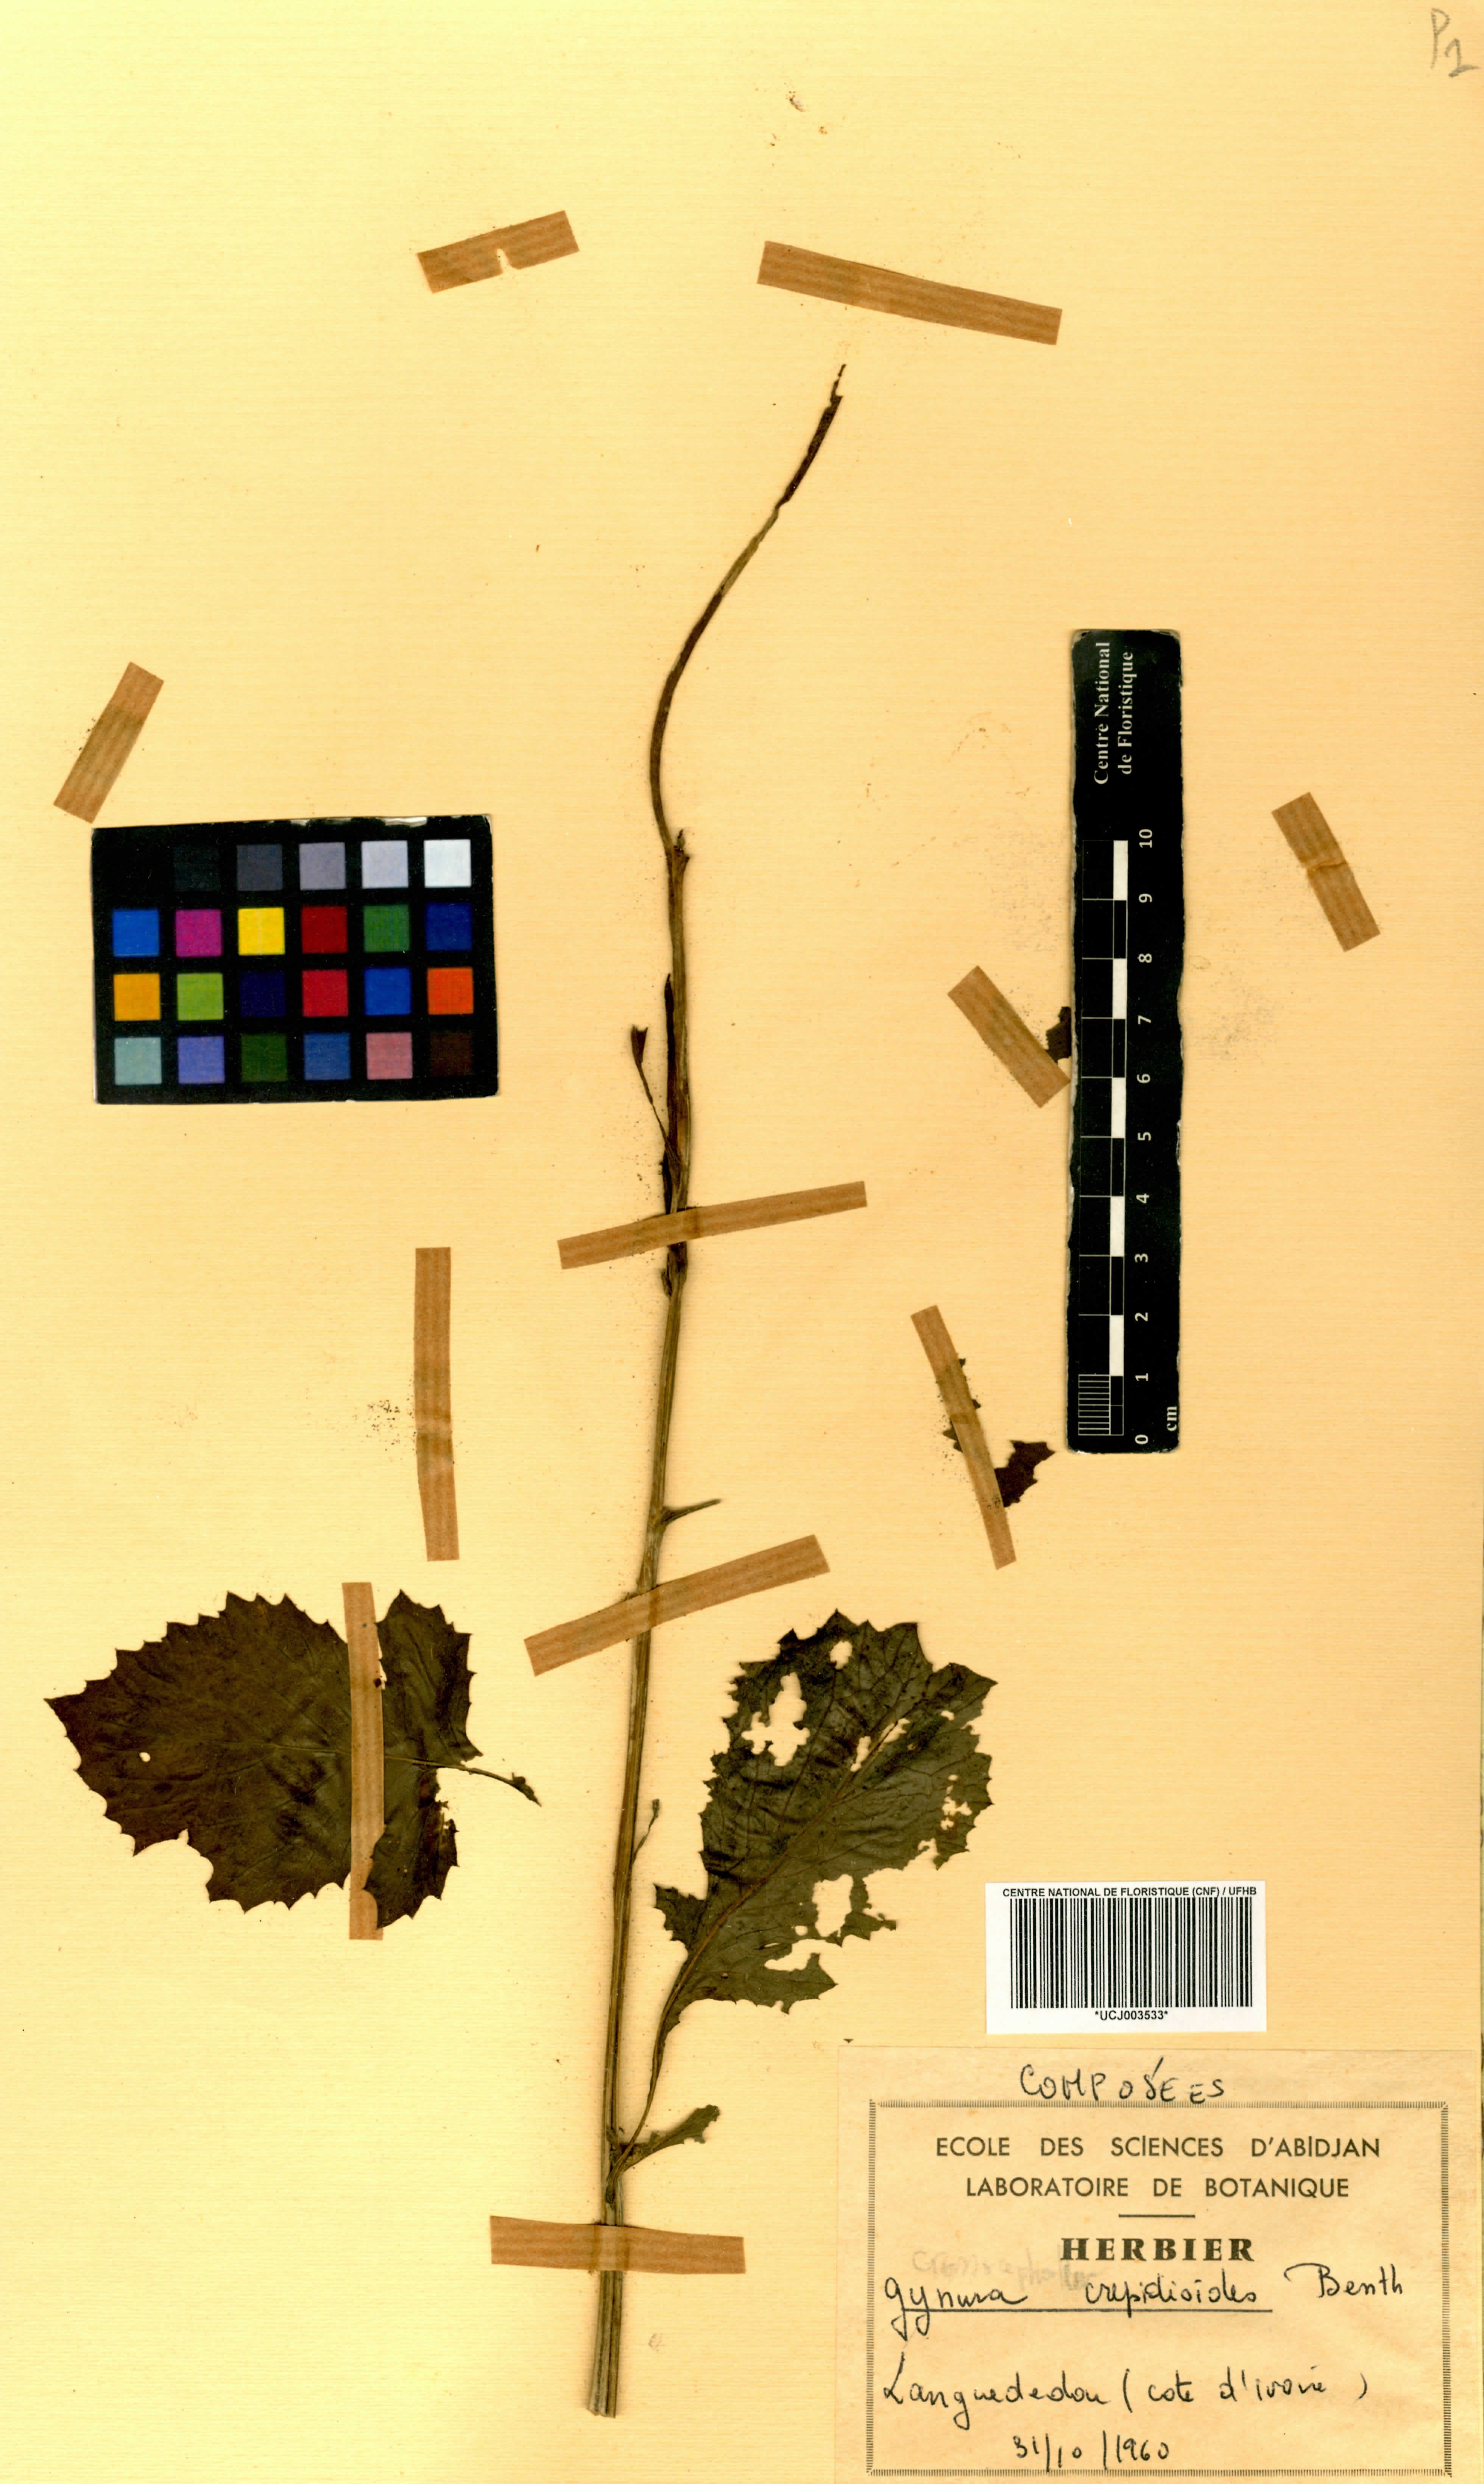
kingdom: Plantae
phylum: Tracheophyta
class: Magnoliopsida
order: Asterales
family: Asteraceae
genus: Crassocephalum
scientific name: Crassocephalum crepidioides
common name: Redflower ragleaf
